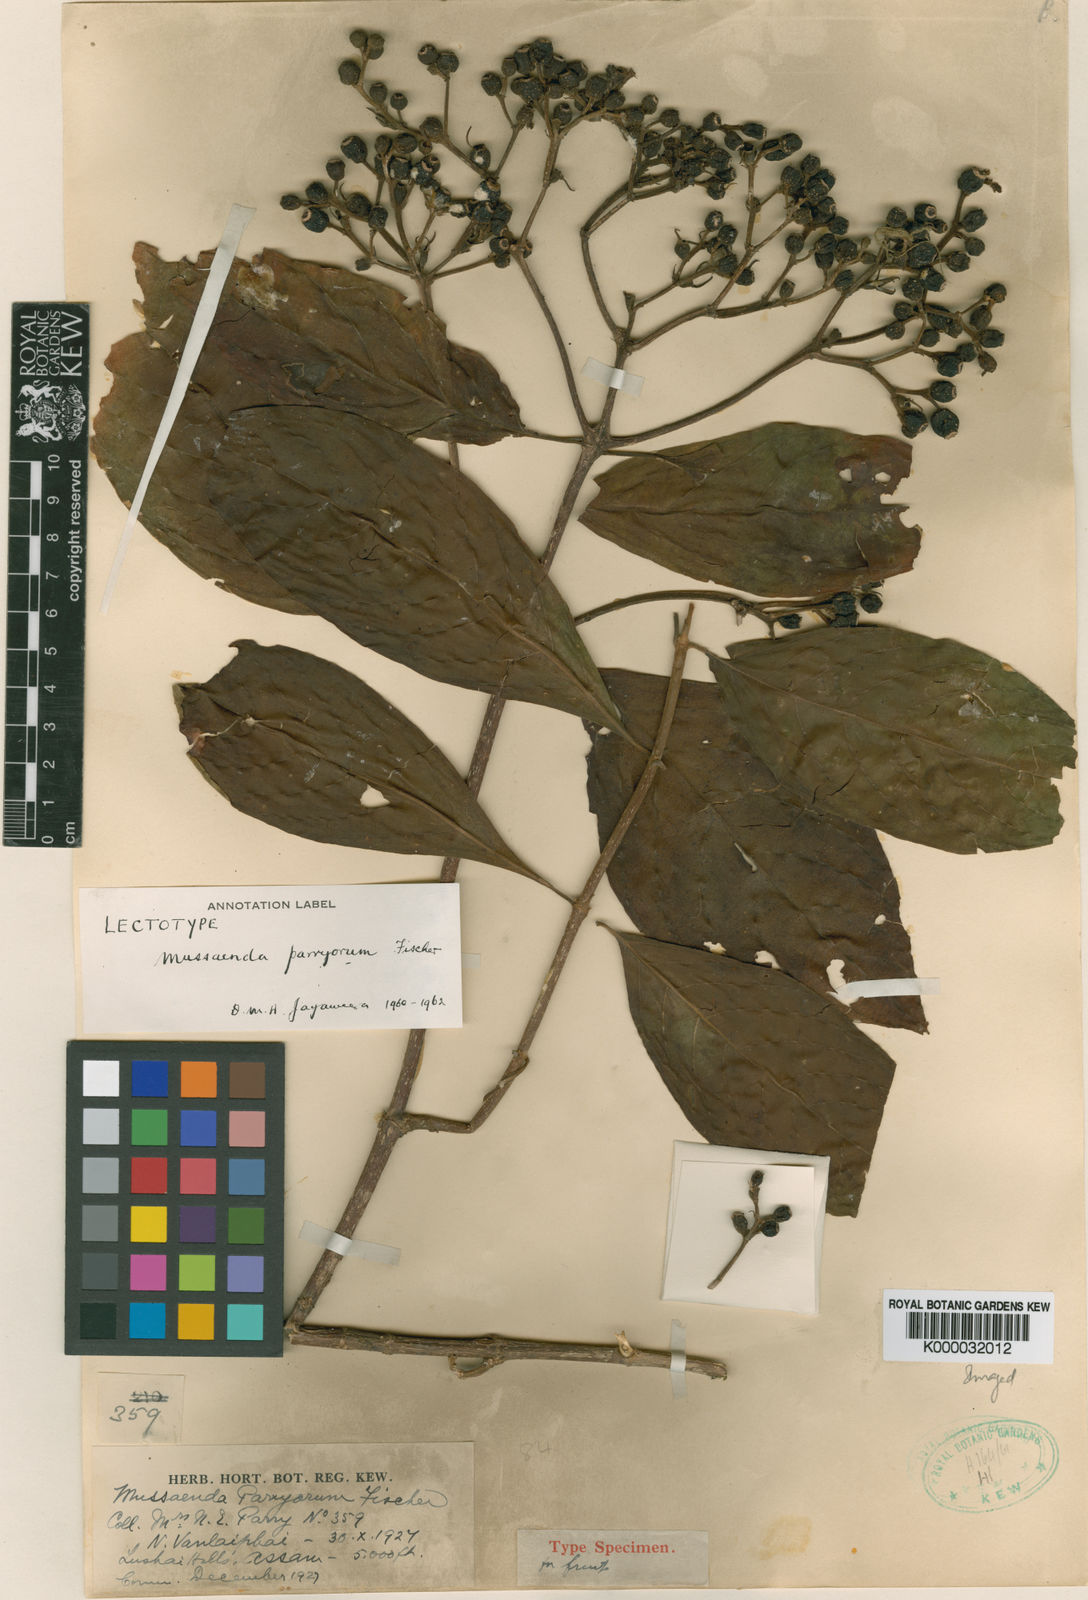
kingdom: Plantae
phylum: Tracheophyta
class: Magnoliopsida
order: Gentianales
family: Rubiaceae
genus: Mussaenda
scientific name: Mussaenda parryorum
